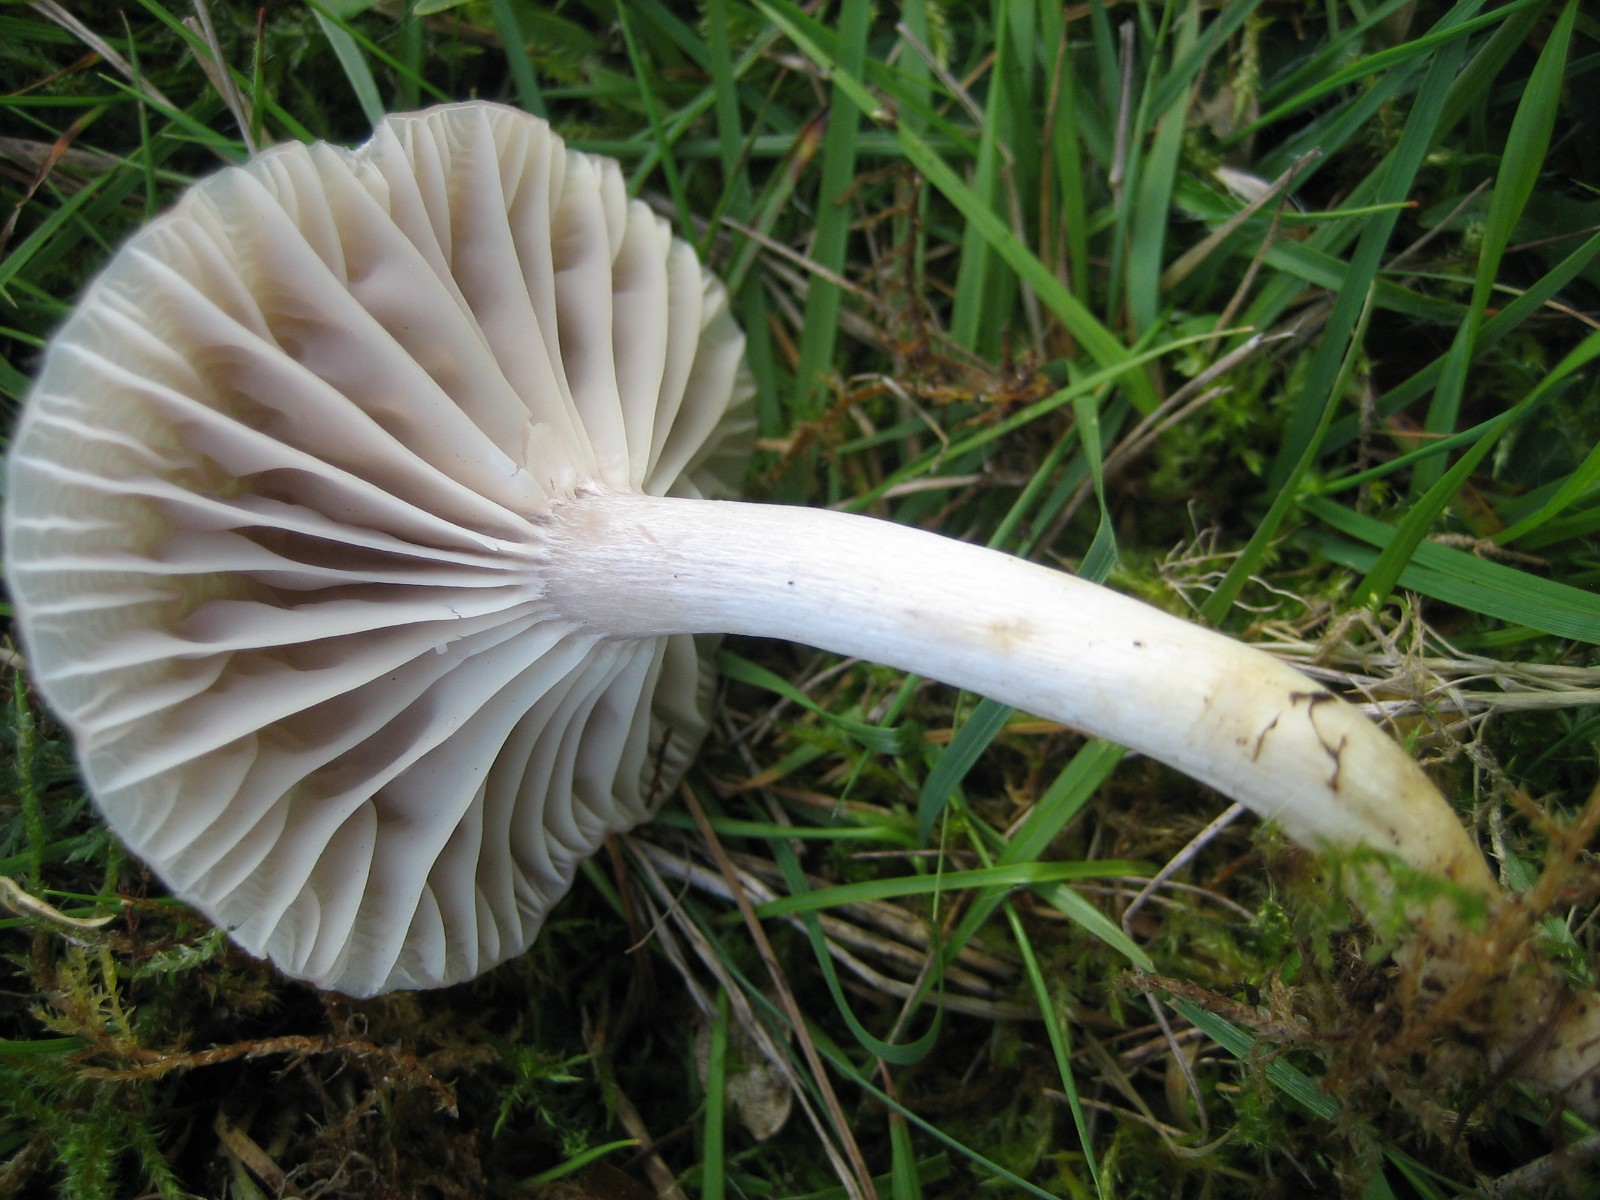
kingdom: Fungi
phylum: Basidiomycota
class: Agaricomycetes
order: Agaricales
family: Hygrophoraceae
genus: Cuphophyllus
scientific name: Cuphophyllus flavipes
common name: gulfodet vokshat
